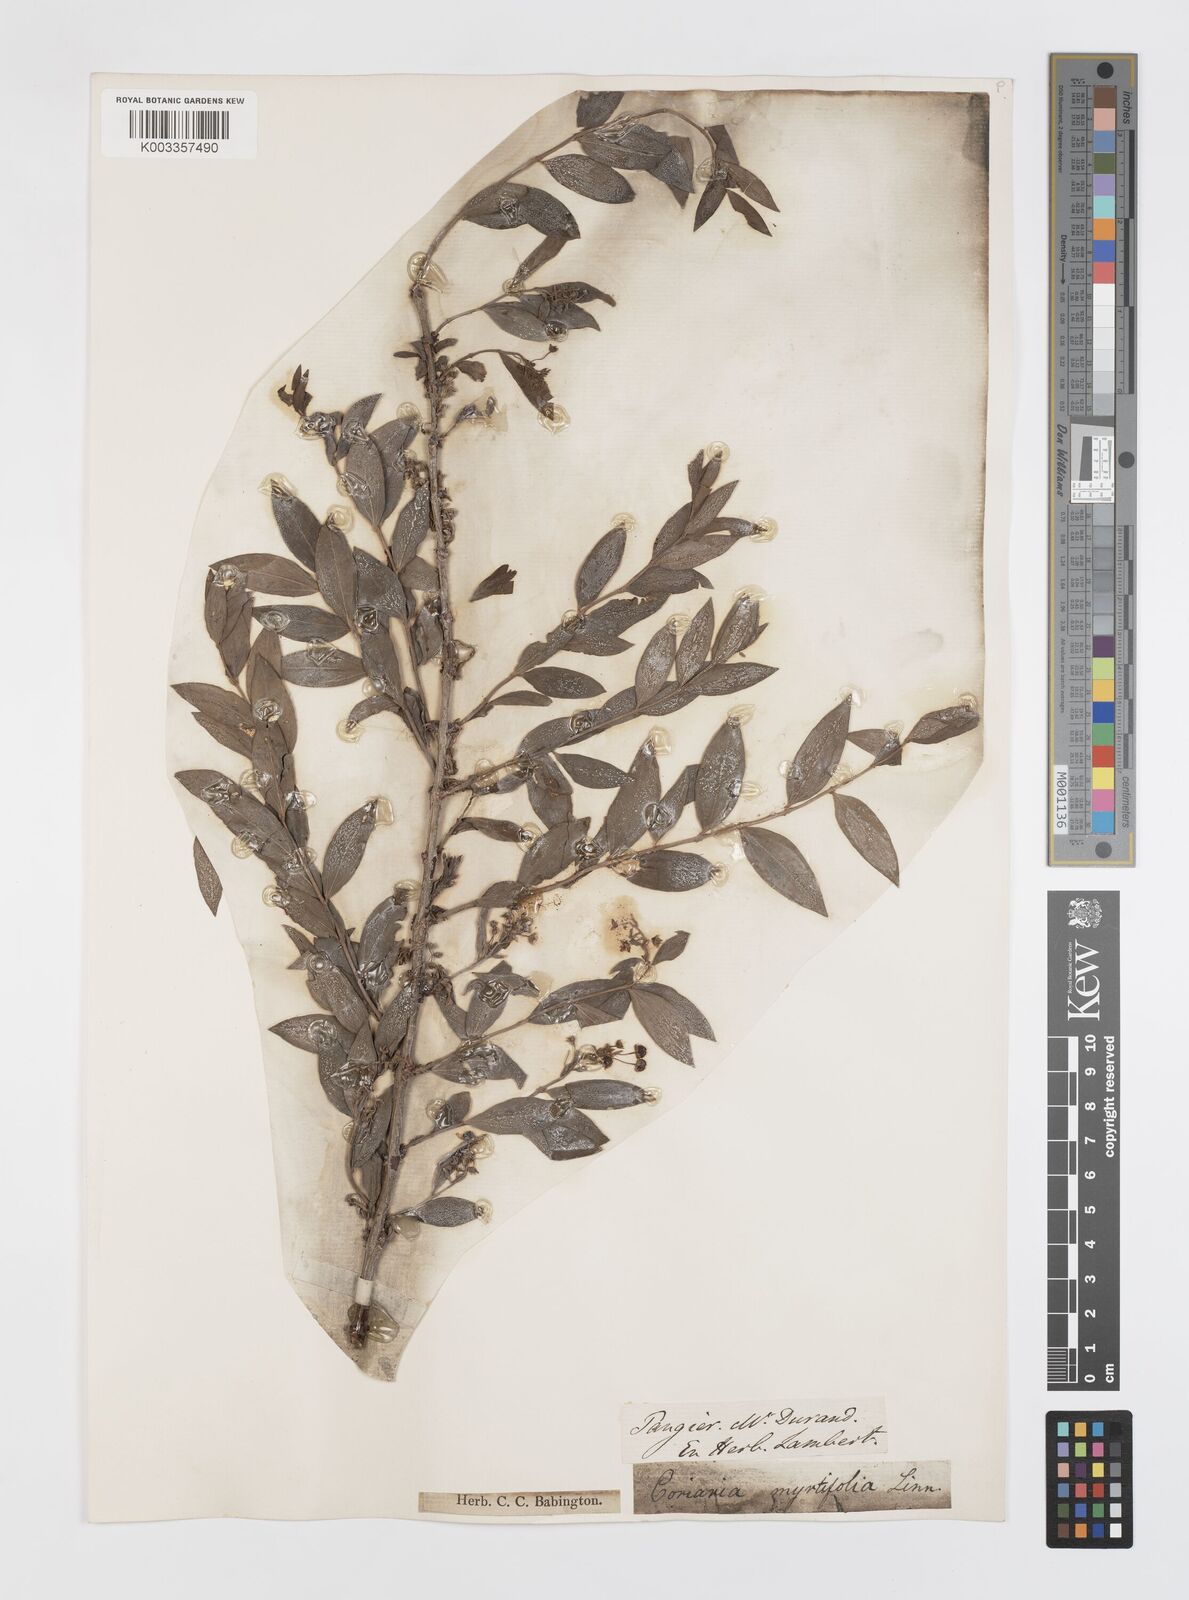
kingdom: Plantae
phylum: Tracheophyta
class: Magnoliopsida
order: Cucurbitales
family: Coriariaceae
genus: Coriaria
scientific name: Coriaria
